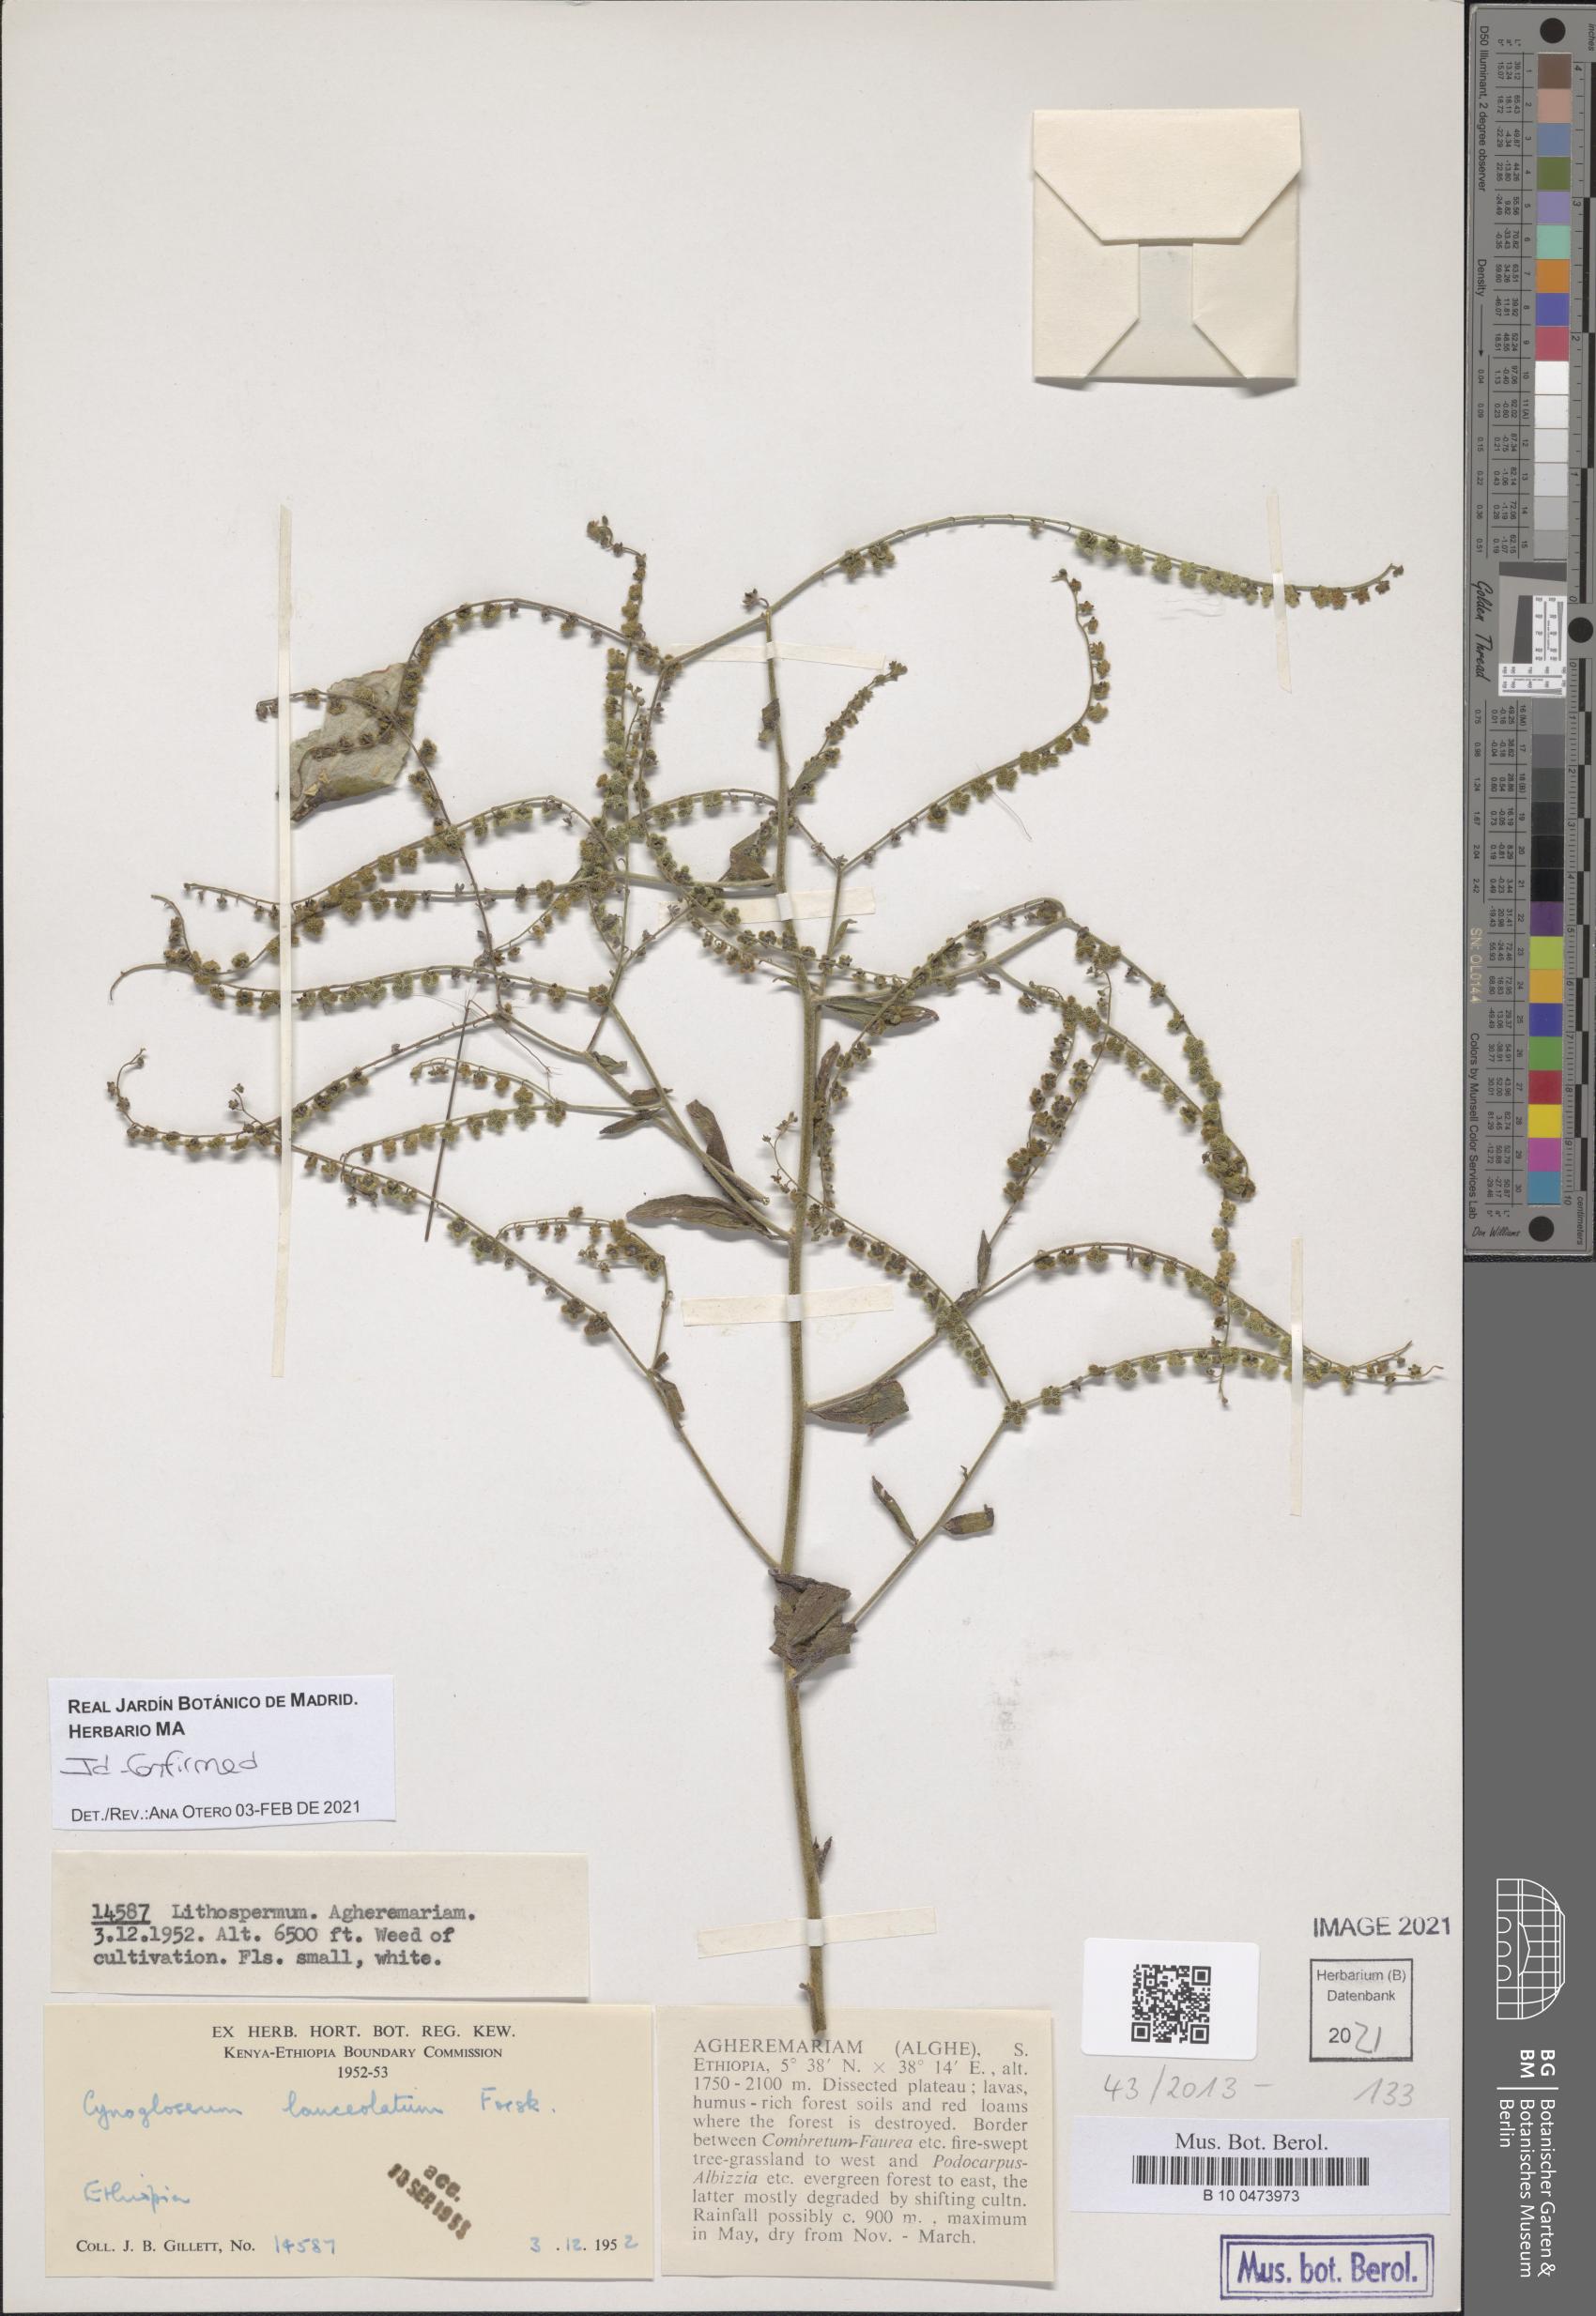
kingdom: Plantae
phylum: Tracheophyta
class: Magnoliopsida
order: Boraginales
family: Boraginaceae
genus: Paracynoglossum
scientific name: Paracynoglossum lanceolatum
